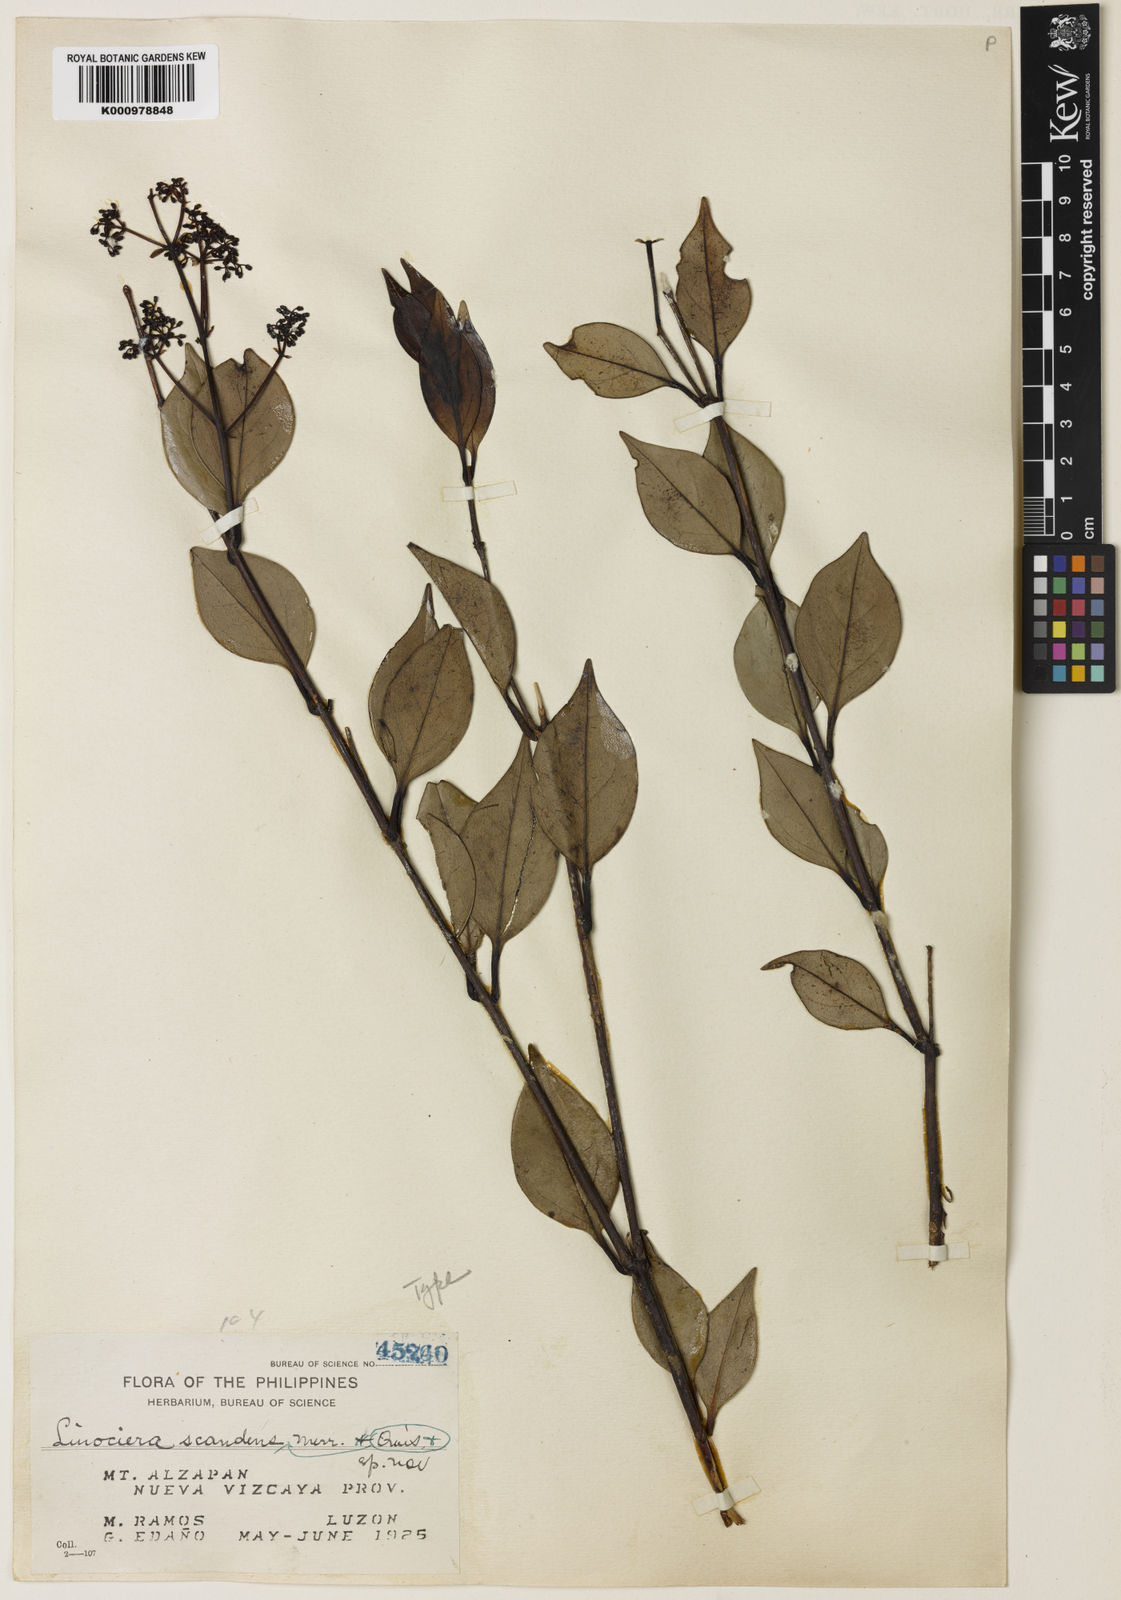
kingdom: Plantae
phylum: Tracheophyta
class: Magnoliopsida
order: Lamiales
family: Oleaceae
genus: Chionanthus
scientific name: Chionanthus
